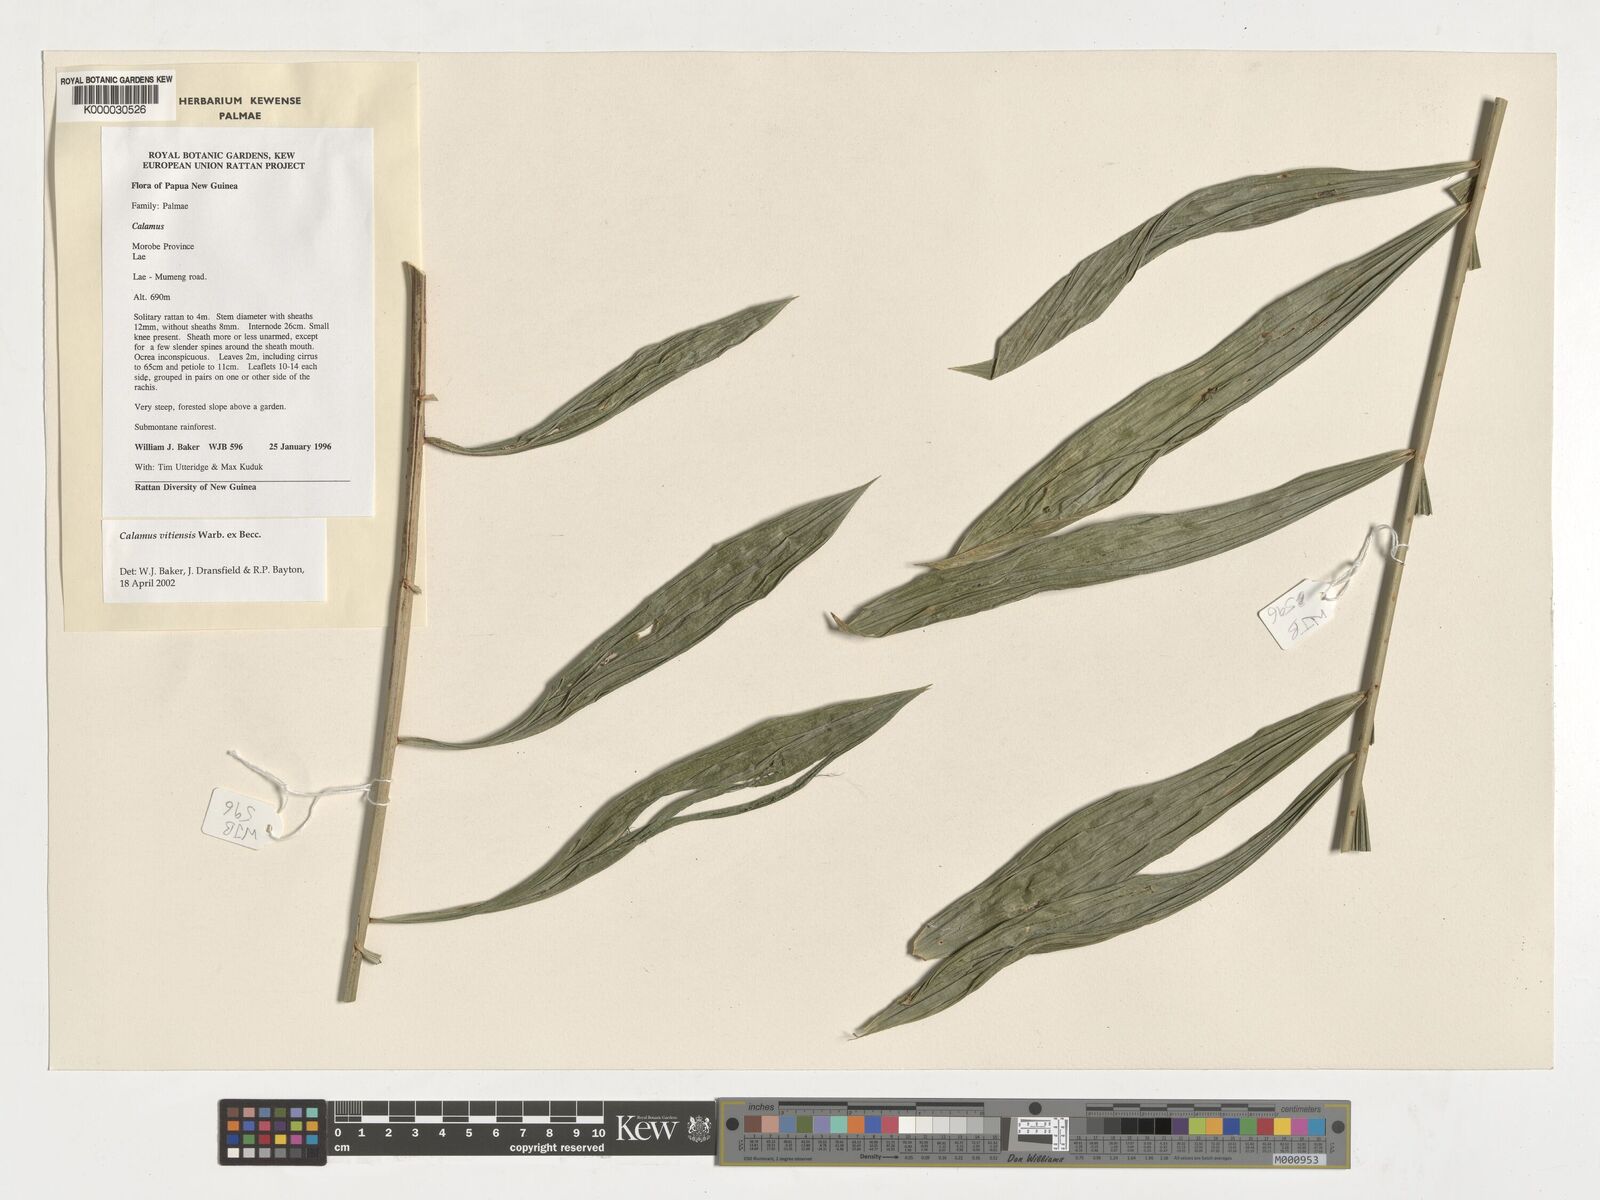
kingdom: Plantae
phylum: Tracheophyta
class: Liliopsida
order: Arecales
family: Arecaceae
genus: Calamus
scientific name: Calamus vitiensis
